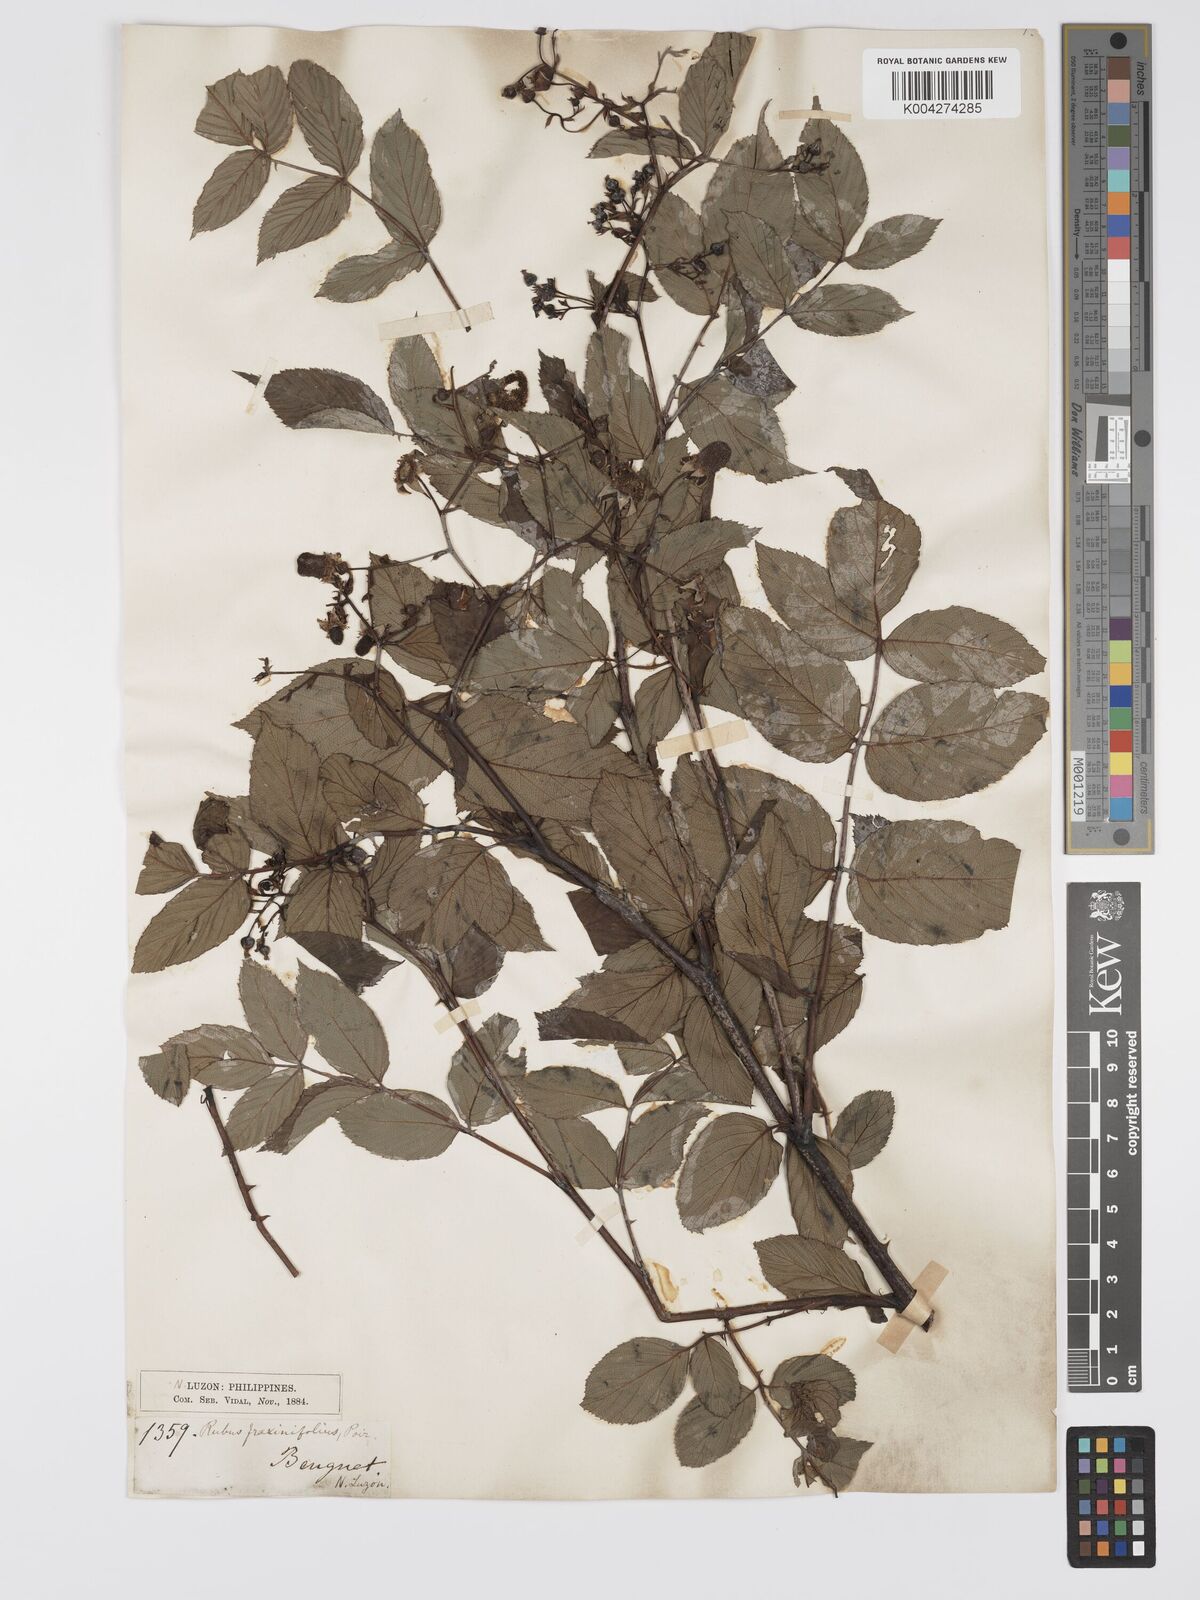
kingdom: Plantae
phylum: Tracheophyta
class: Magnoliopsida
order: Rosales
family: Rosaceae
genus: Rubus
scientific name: Rubus fraxinifolius
